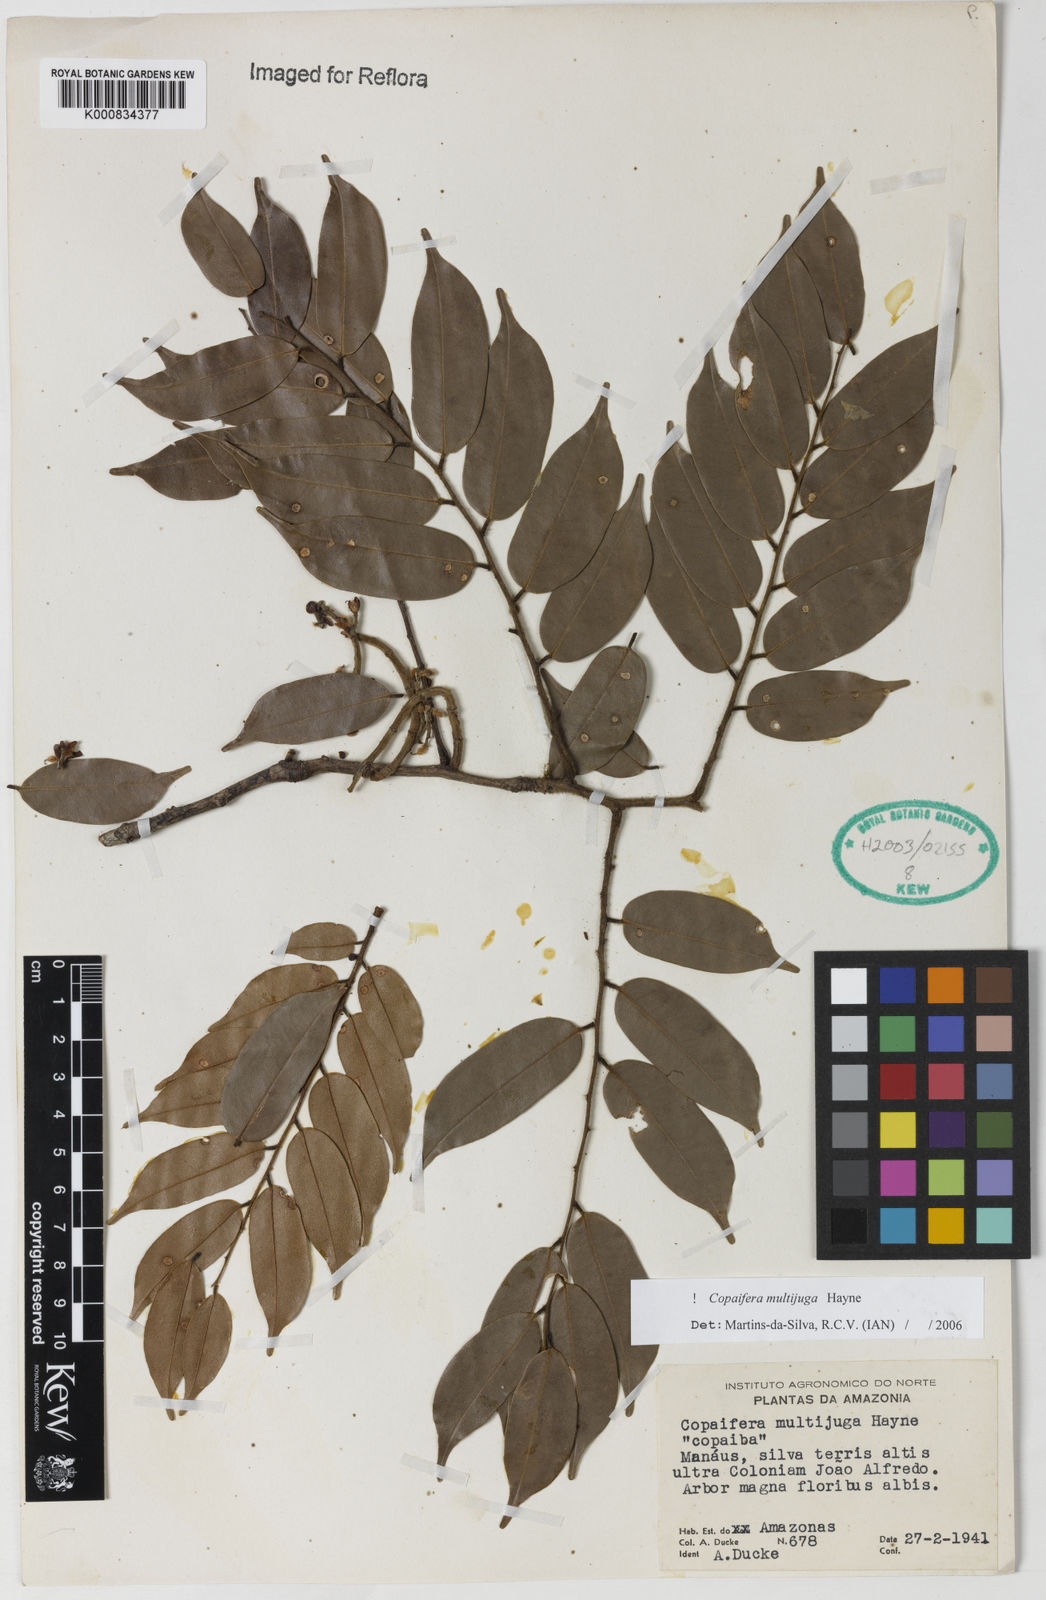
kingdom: Plantae
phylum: Tracheophyta
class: Magnoliopsida
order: Fabales
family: Fabaceae
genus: Copaifera
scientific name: Copaifera multijuga
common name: Brazilian copaiba
